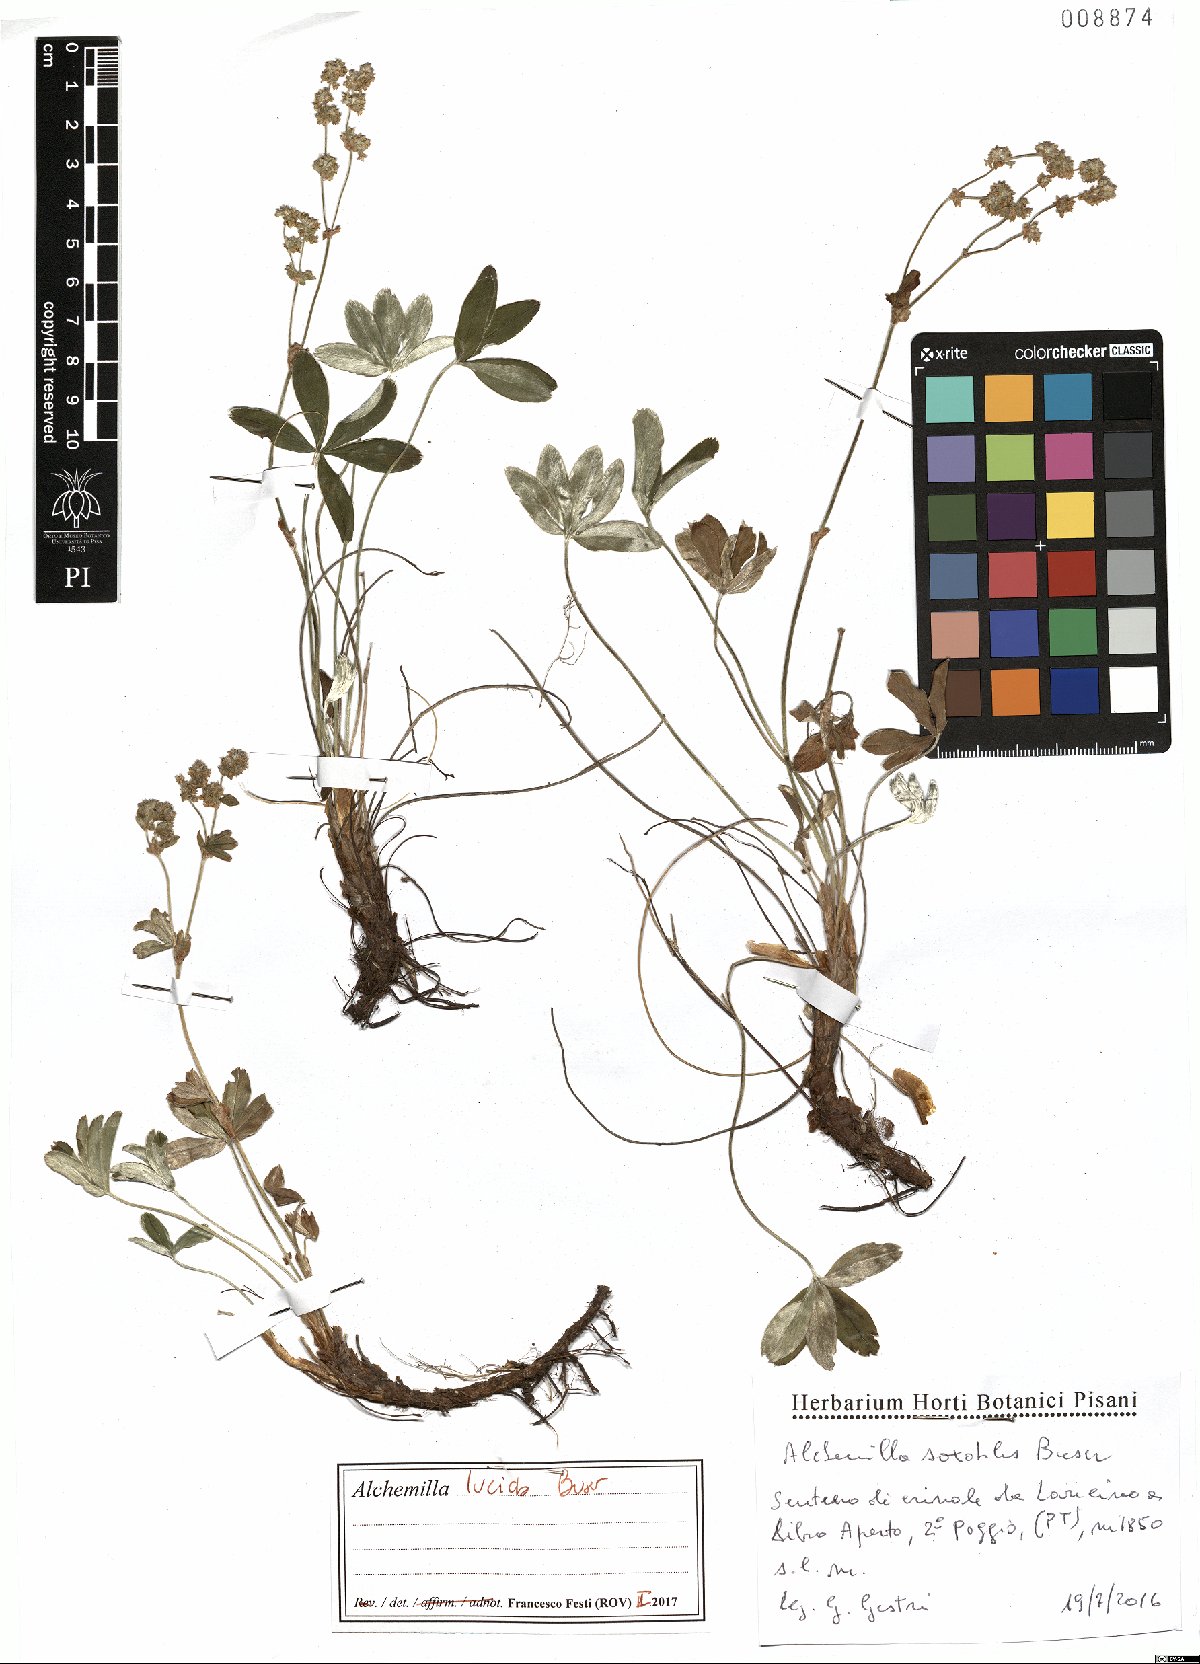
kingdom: Plantae
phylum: Tracheophyta
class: Magnoliopsida
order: Rosales
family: Rosaceae
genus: Alchemilla
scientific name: Alchemilla lucida
